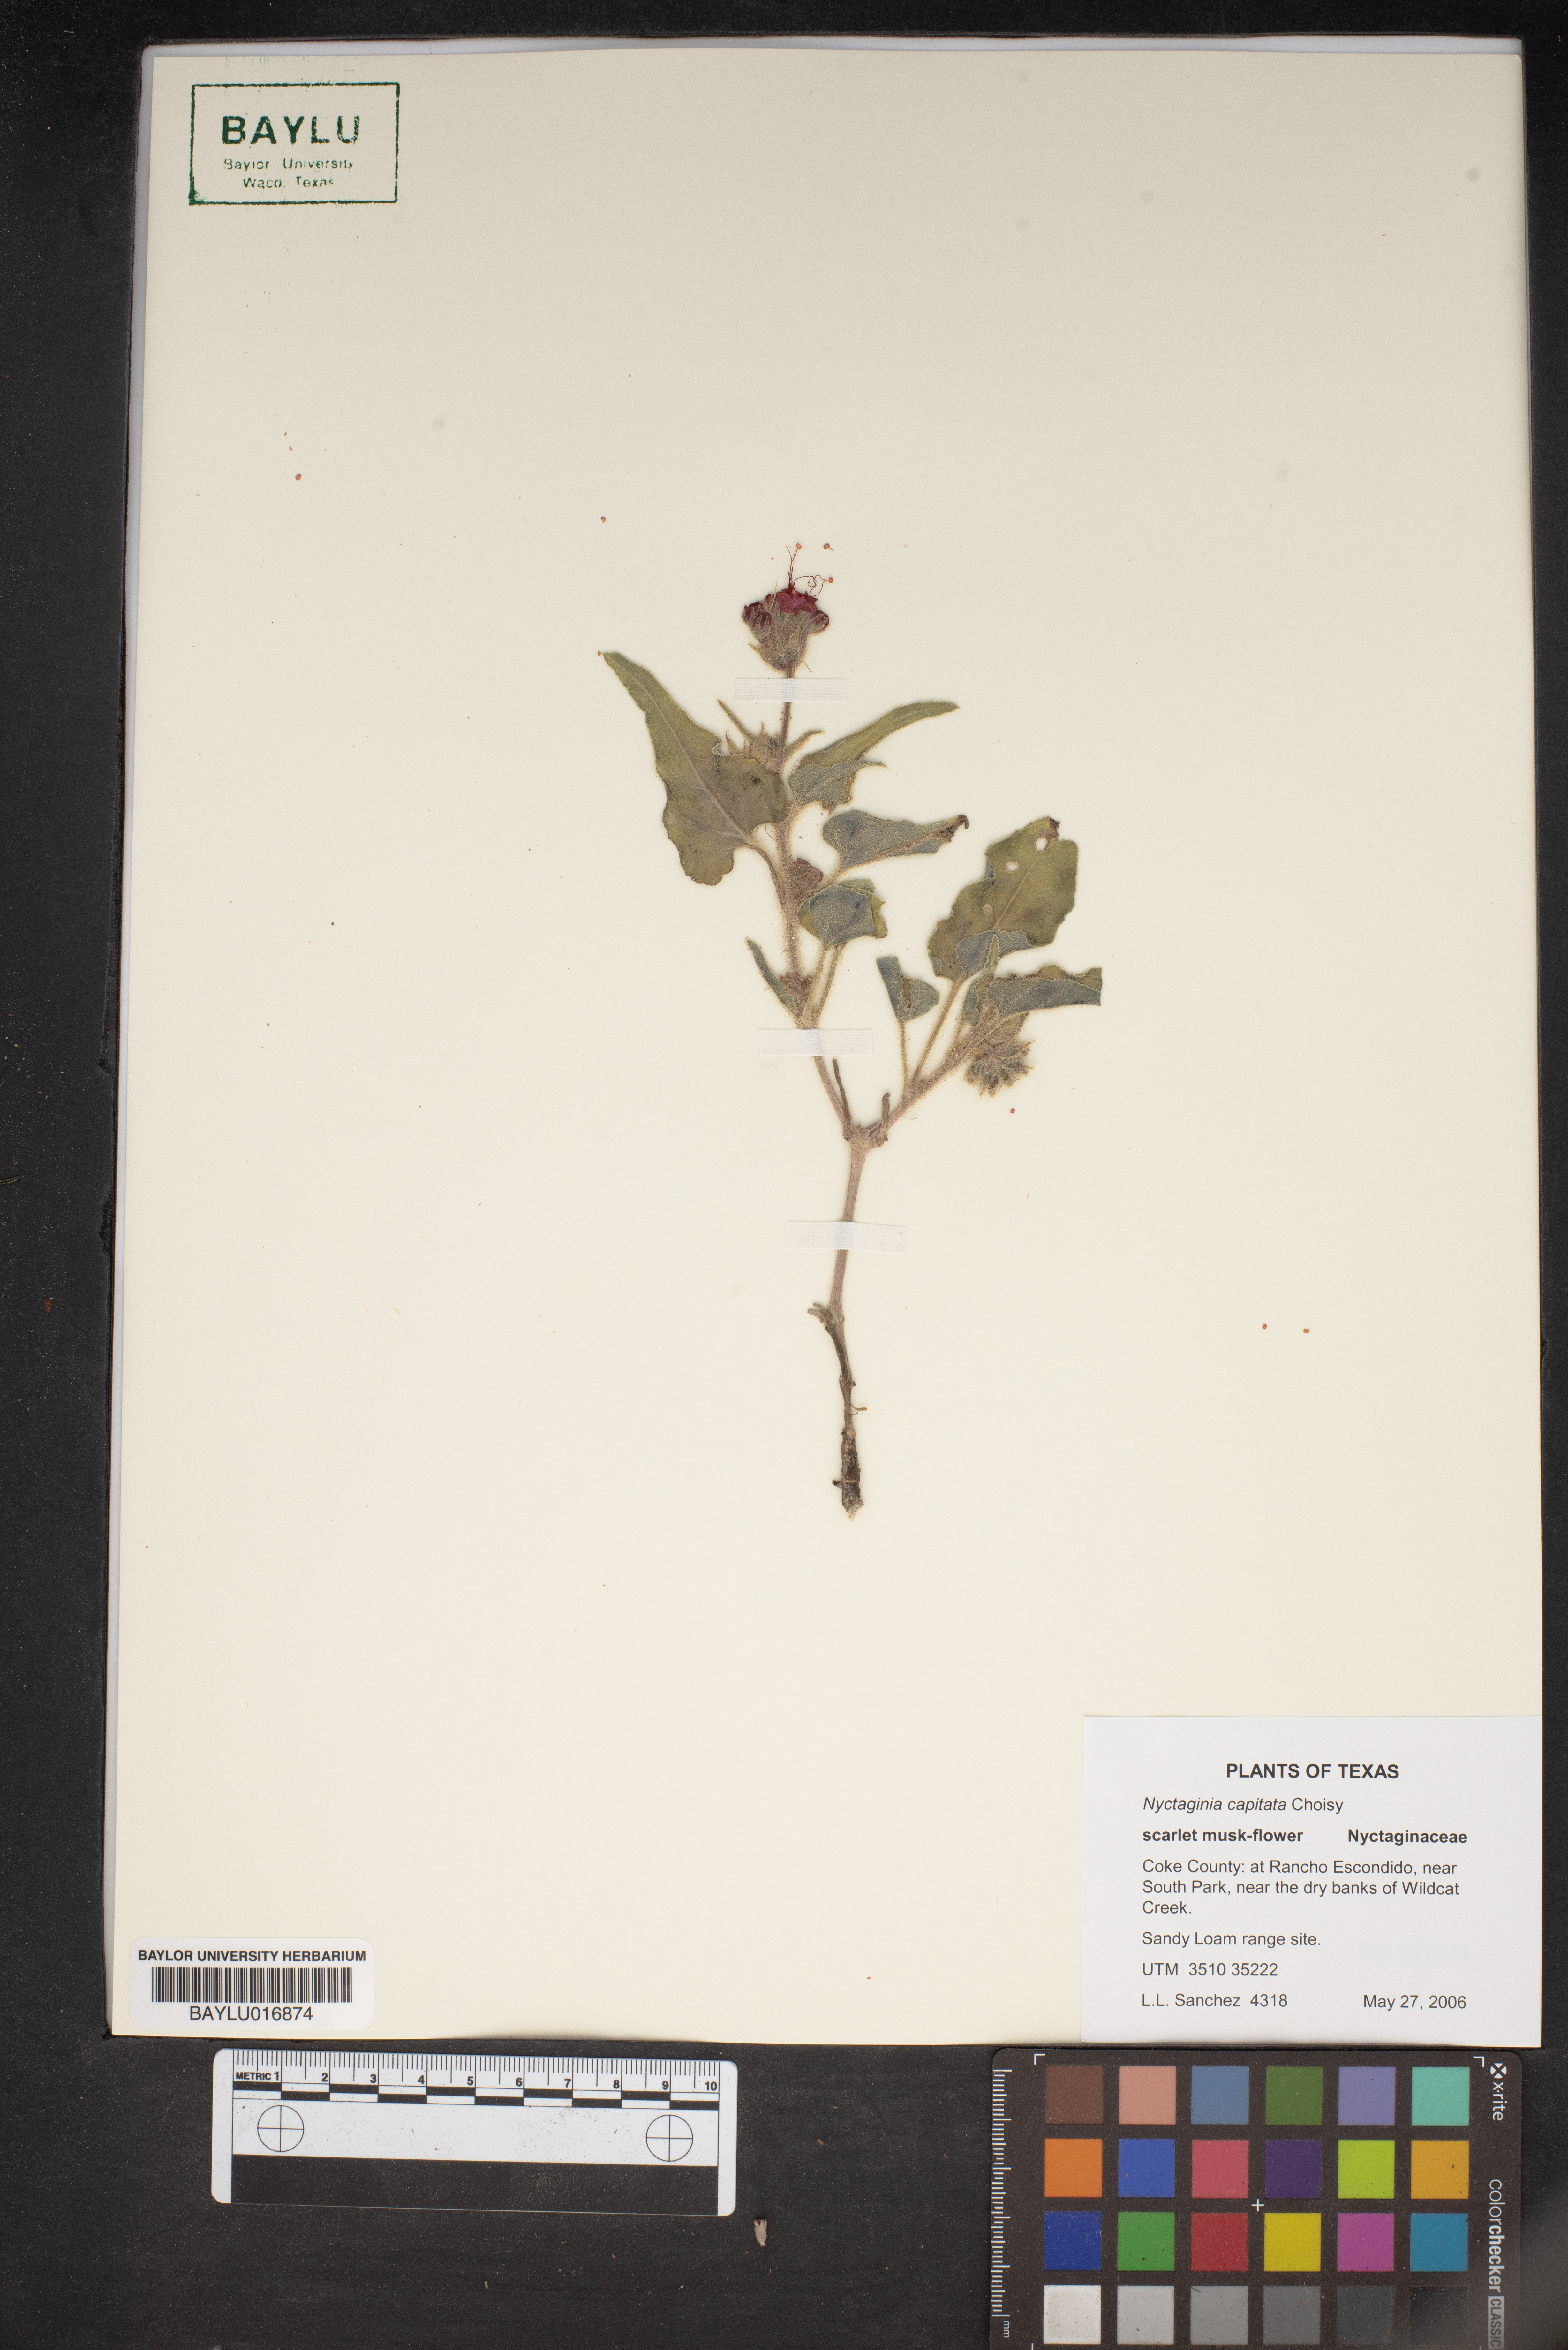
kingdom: Plantae
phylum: Tracheophyta
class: Magnoliopsida
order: Caryophyllales
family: Nyctaginaceae
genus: Nyctaginia
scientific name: Nyctaginia capitata
